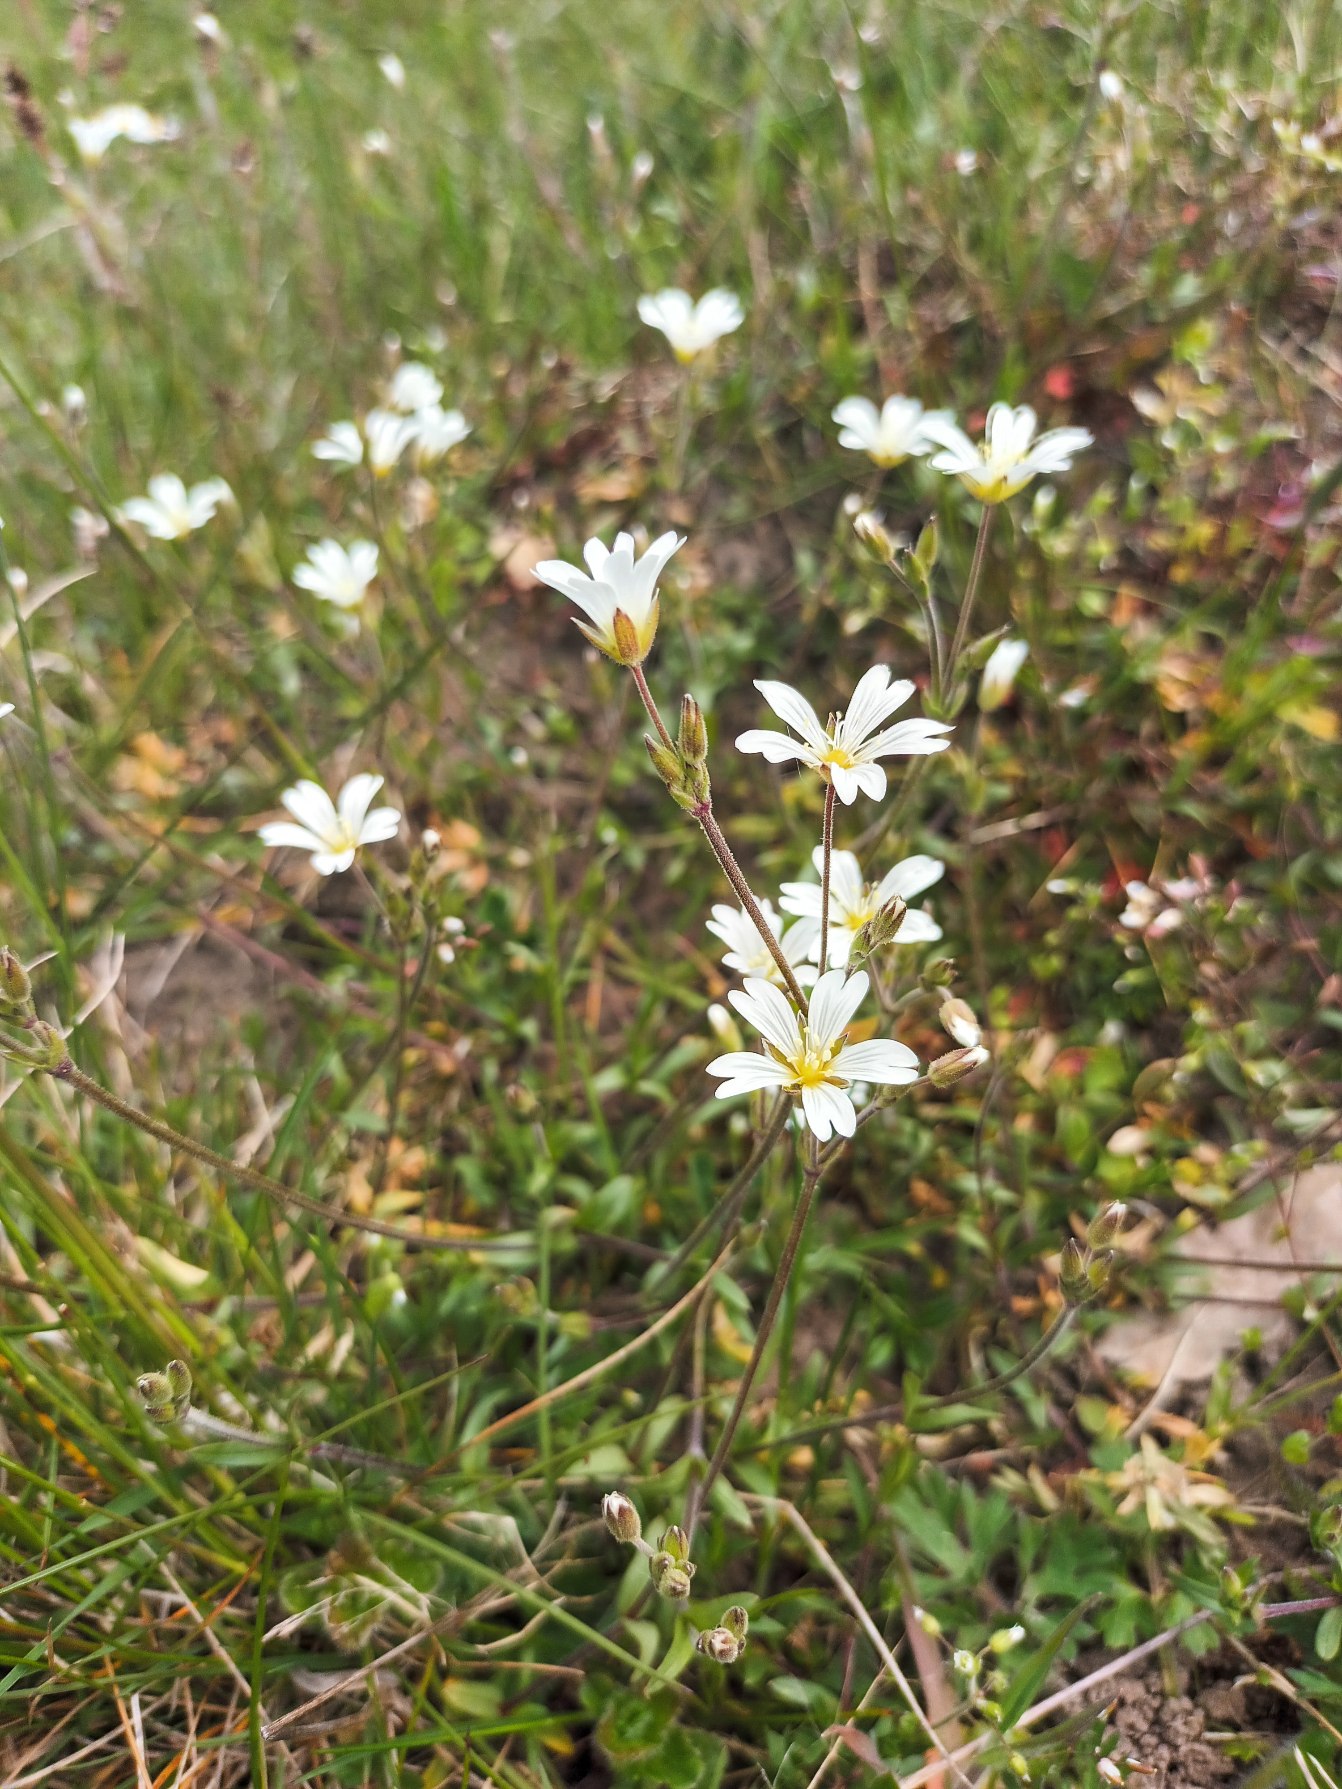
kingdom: Plantae
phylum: Tracheophyta
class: Magnoliopsida
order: Caryophyllales
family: Caryophyllaceae
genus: Cerastium
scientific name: Cerastium arvense
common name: Storblomstret hønsetarm
